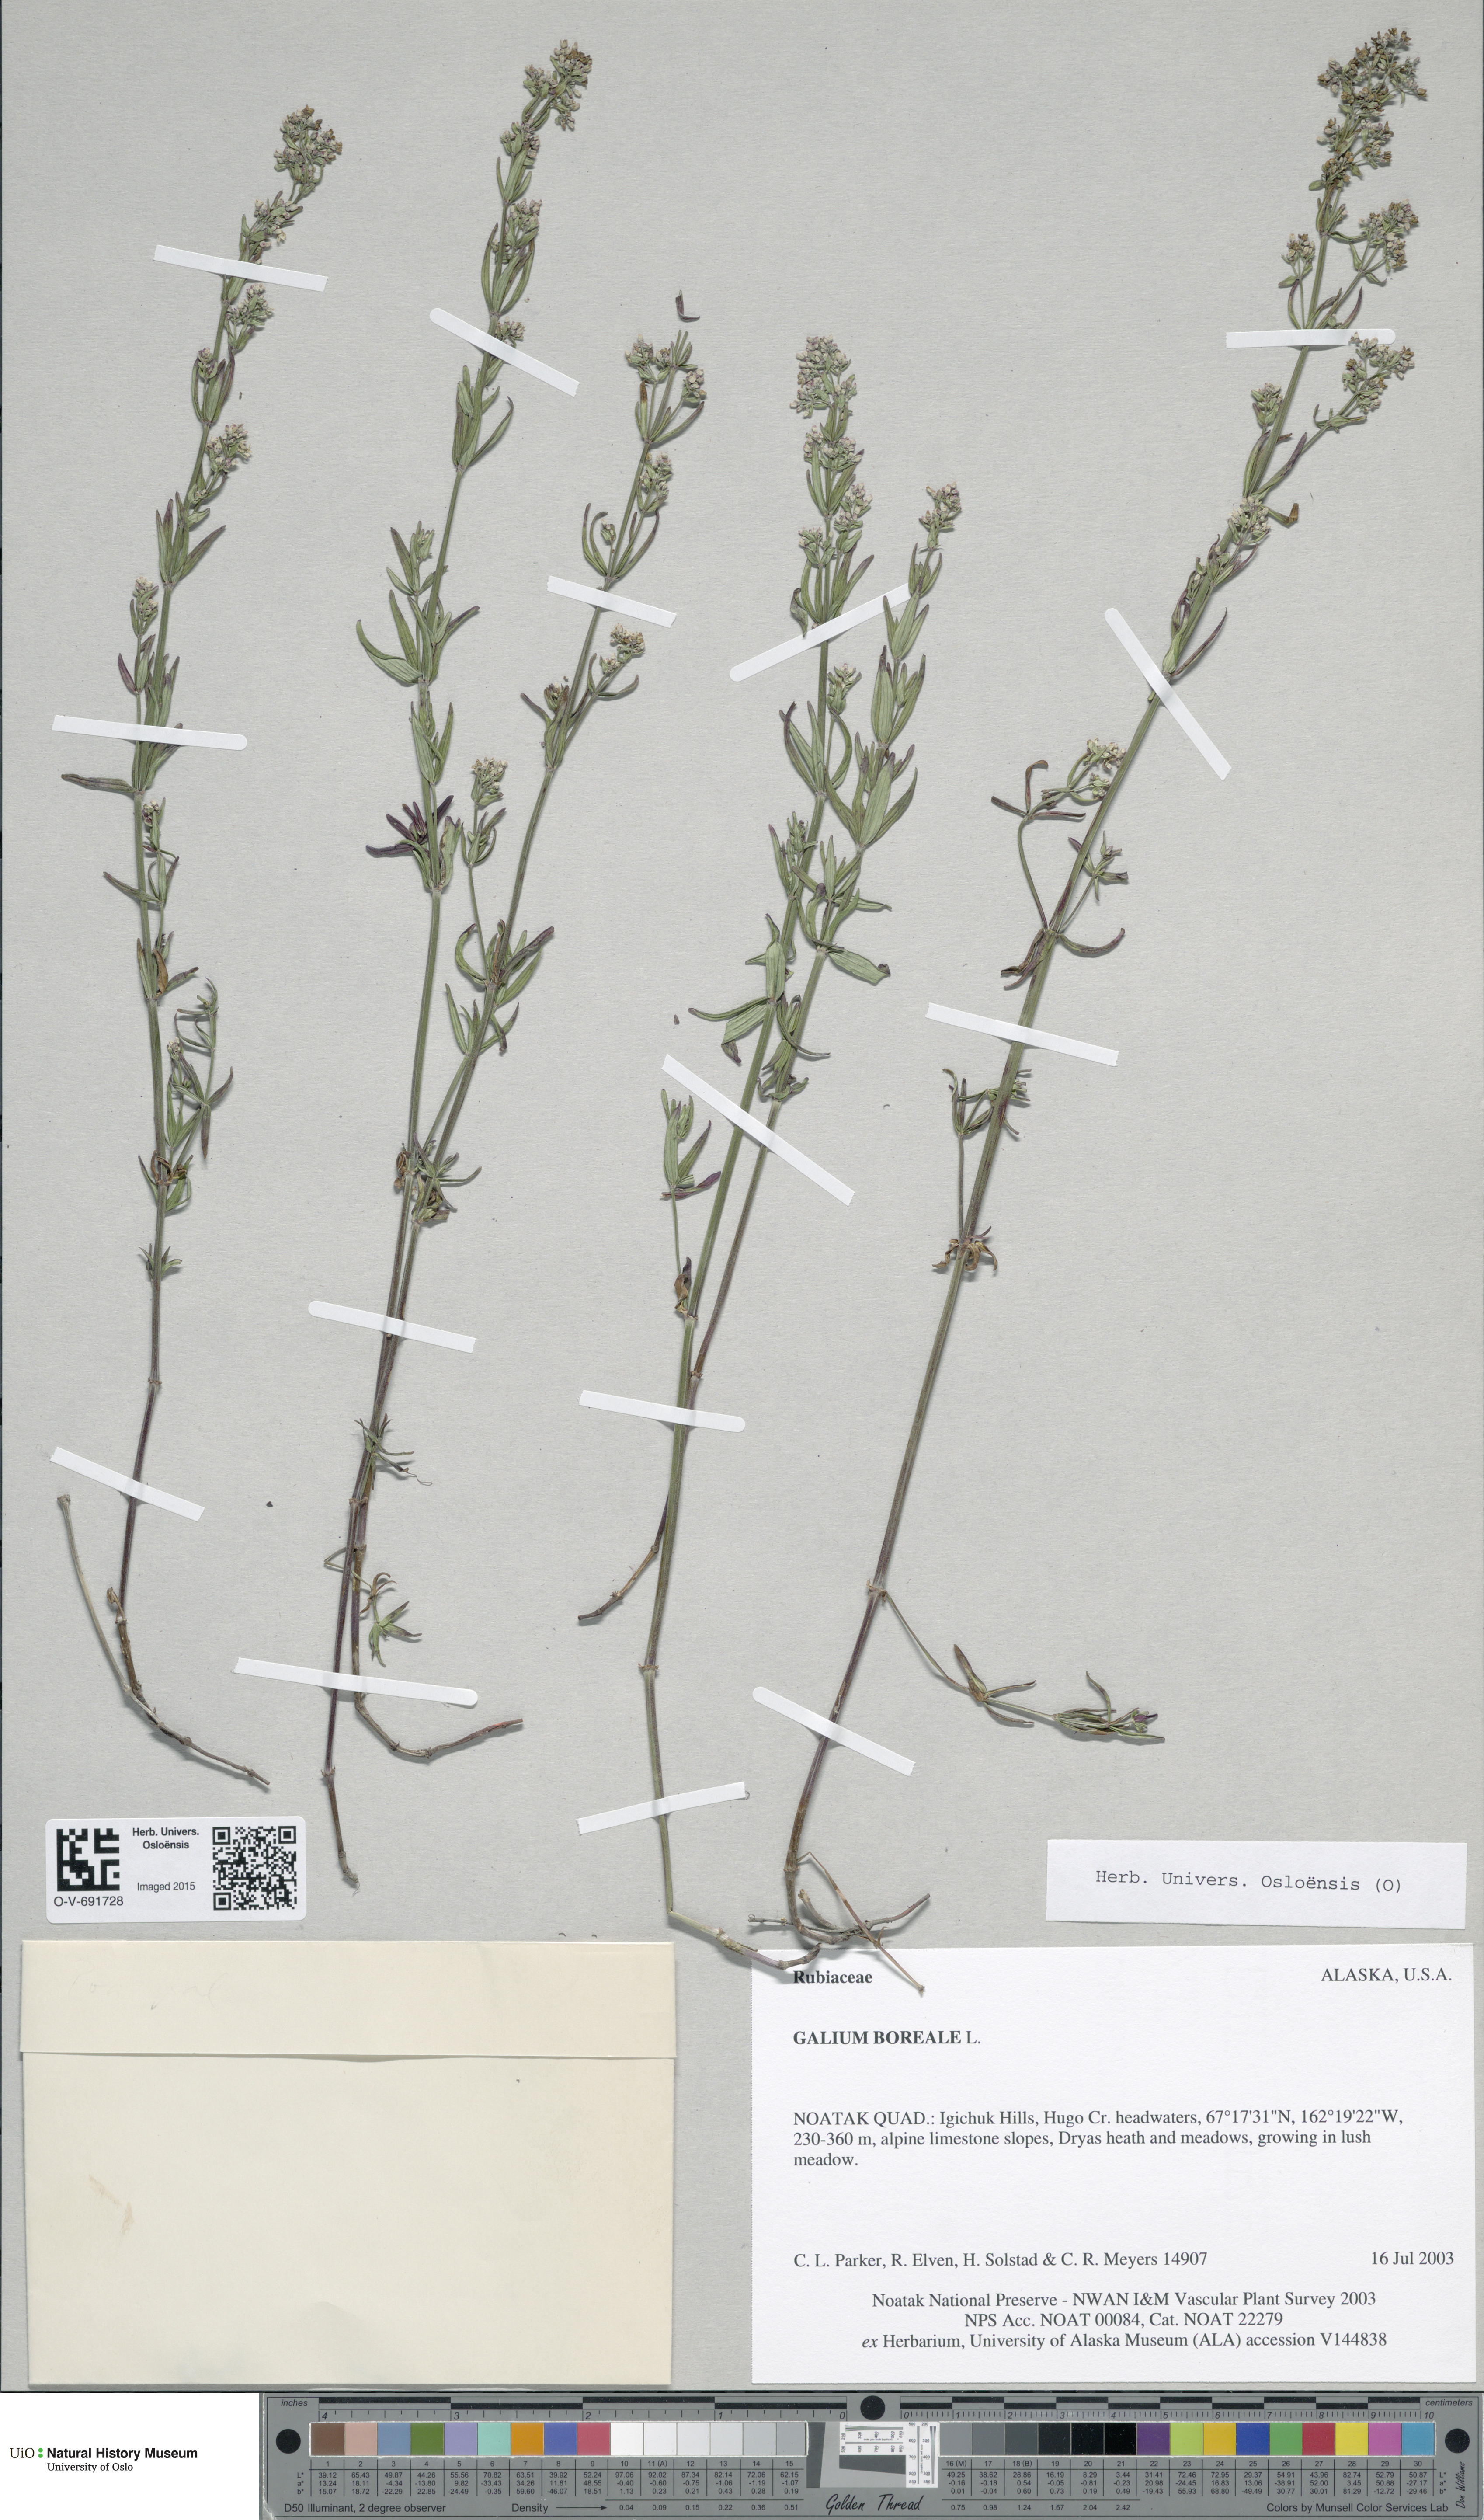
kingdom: Plantae
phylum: Tracheophyta
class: Magnoliopsida
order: Gentianales
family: Rubiaceae
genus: Galium
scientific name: Galium boreale
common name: Northern bedstraw
